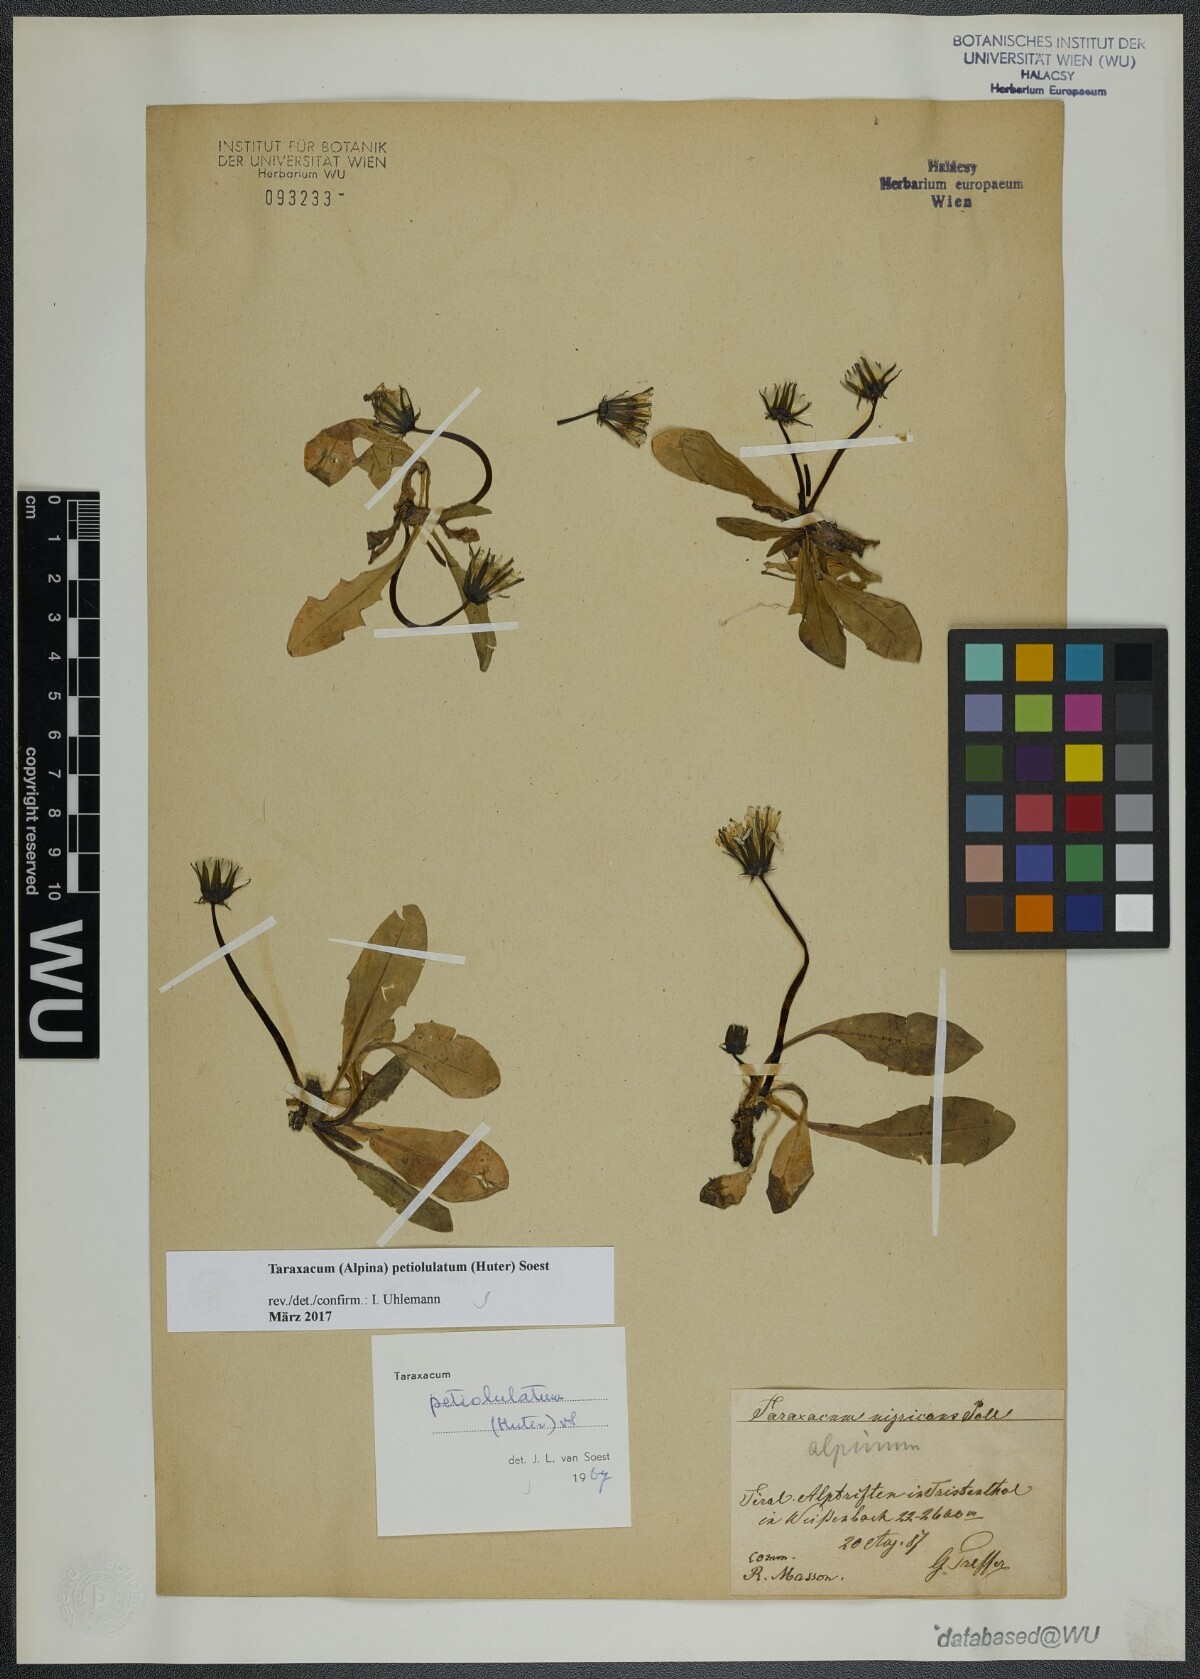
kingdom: Plantae
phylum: Tracheophyta
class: Magnoliopsida
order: Asterales
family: Asteraceae
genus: Taraxacum
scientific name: Taraxacum petiolulatum
